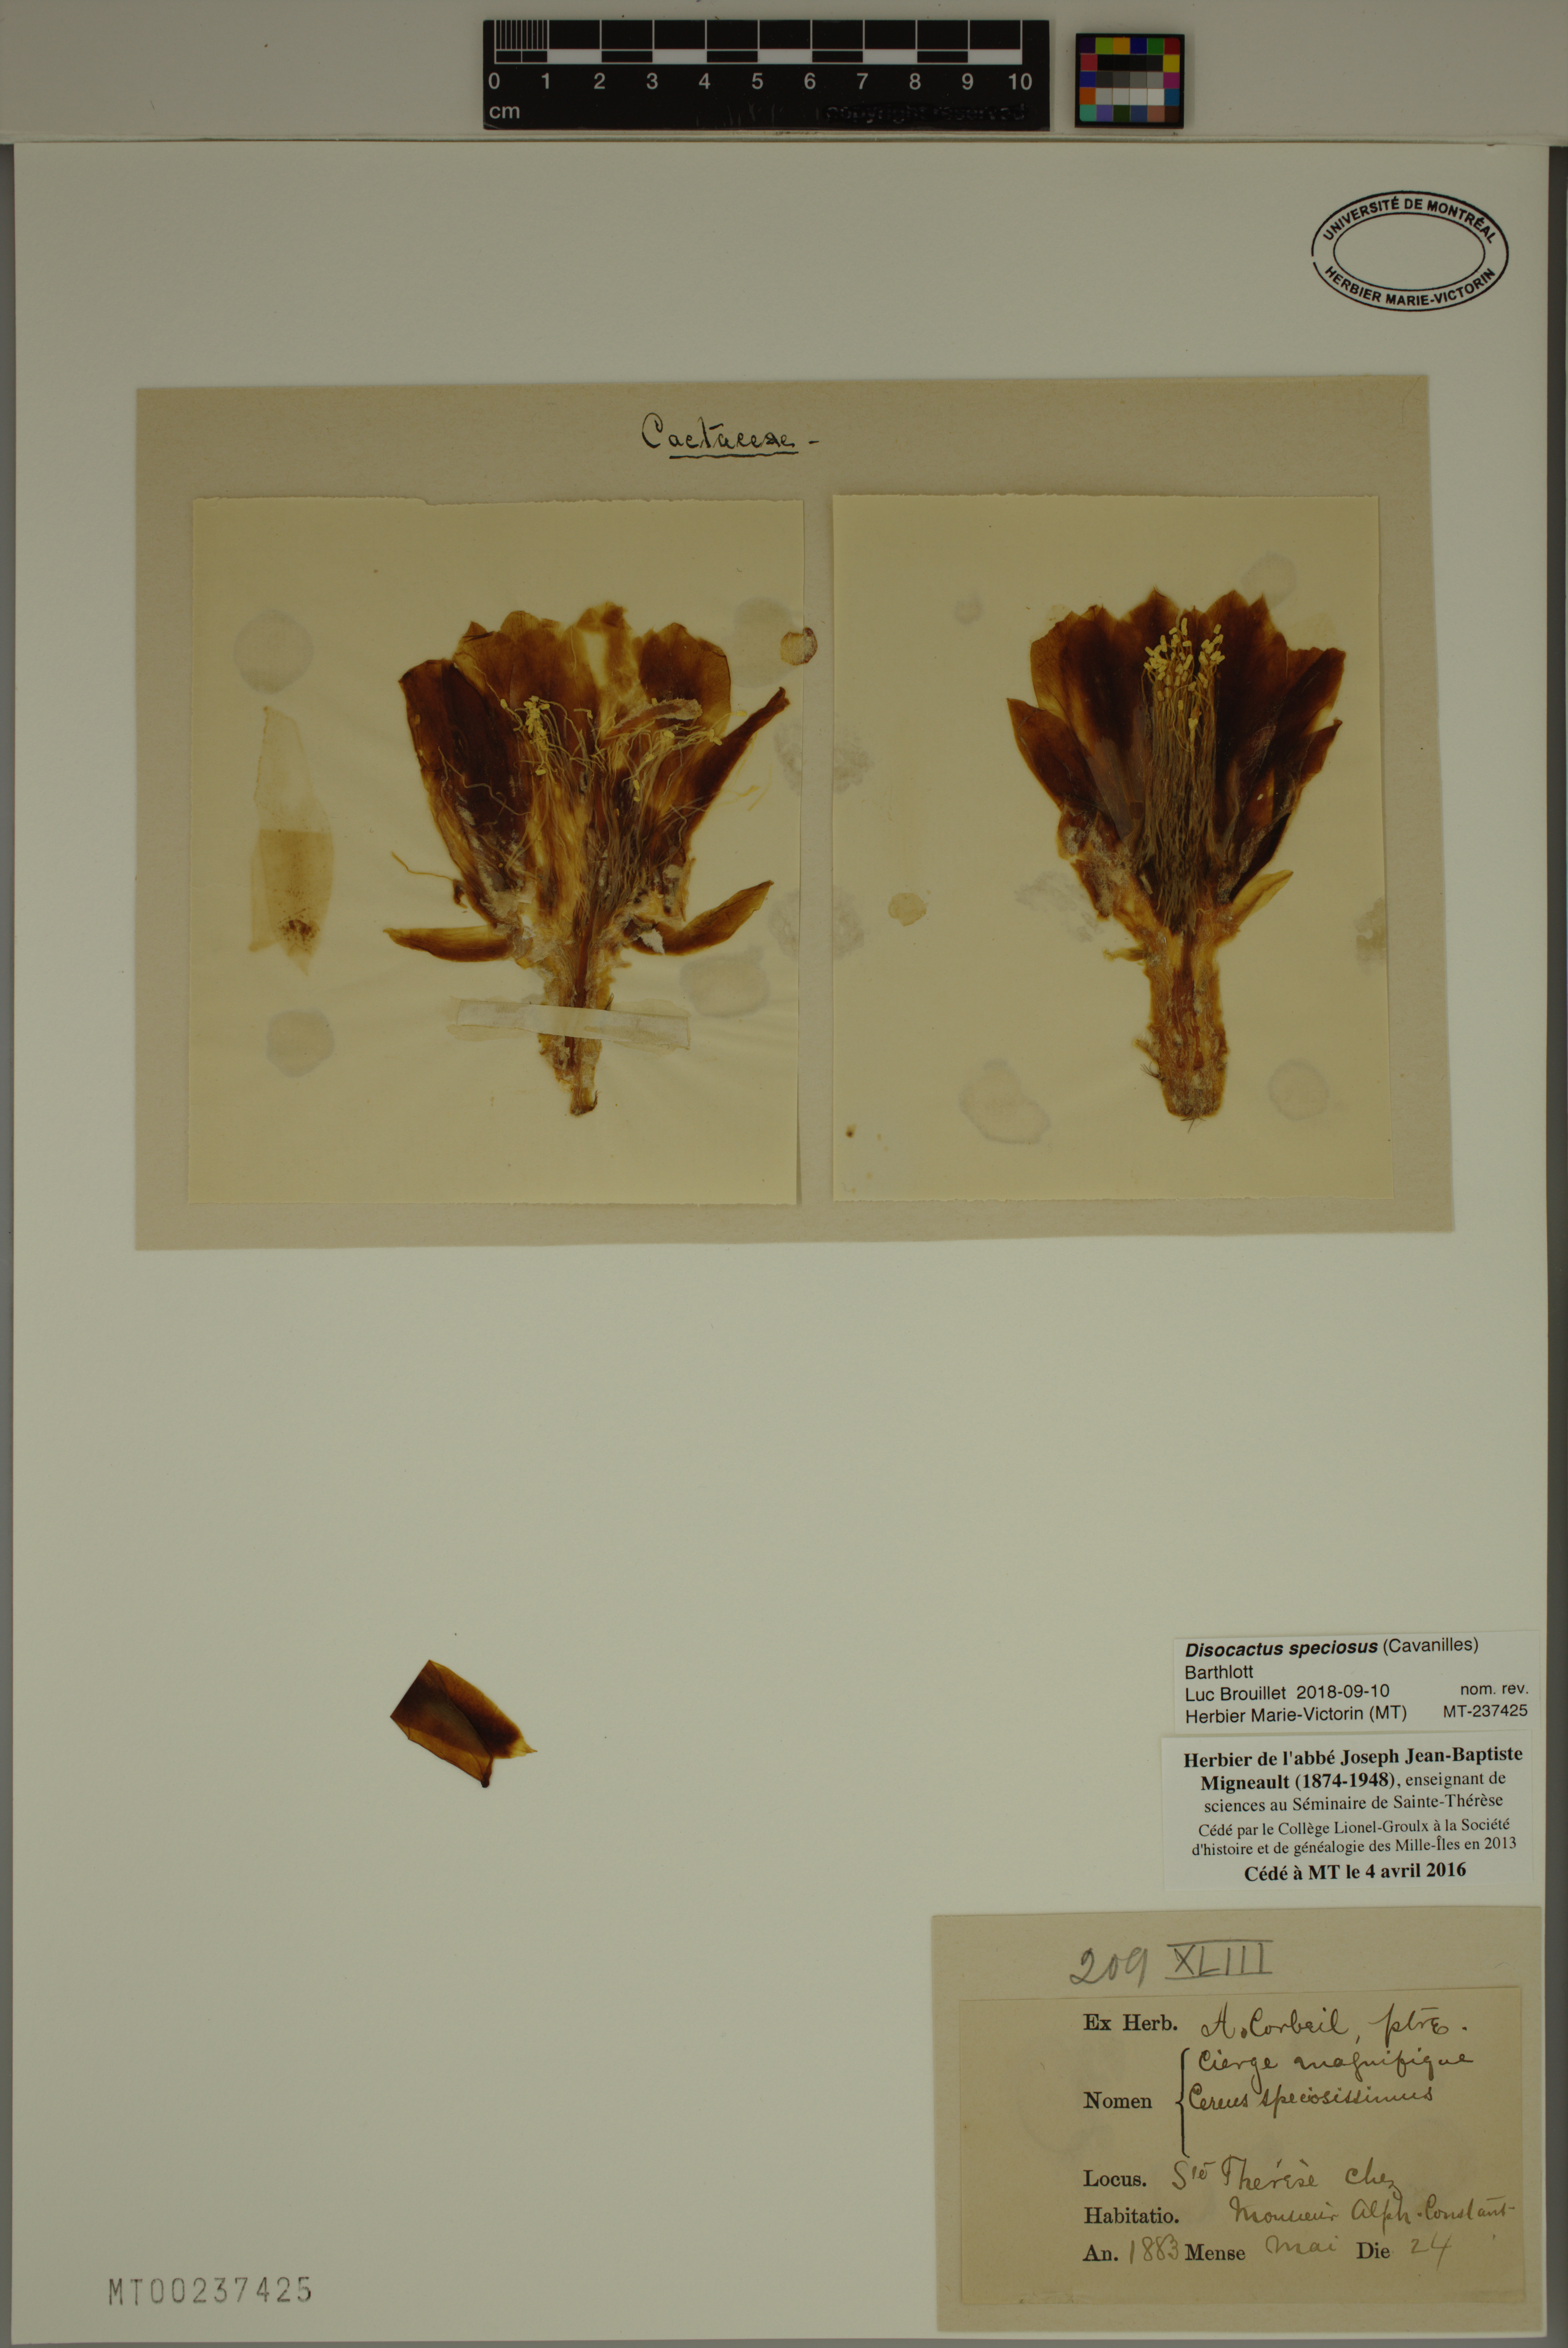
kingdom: Plantae
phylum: Tracheophyta
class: Magnoliopsida
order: Caryophyllales
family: Cactaceae
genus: Disocactus
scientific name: Disocactus speciosus
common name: Sun cereus
